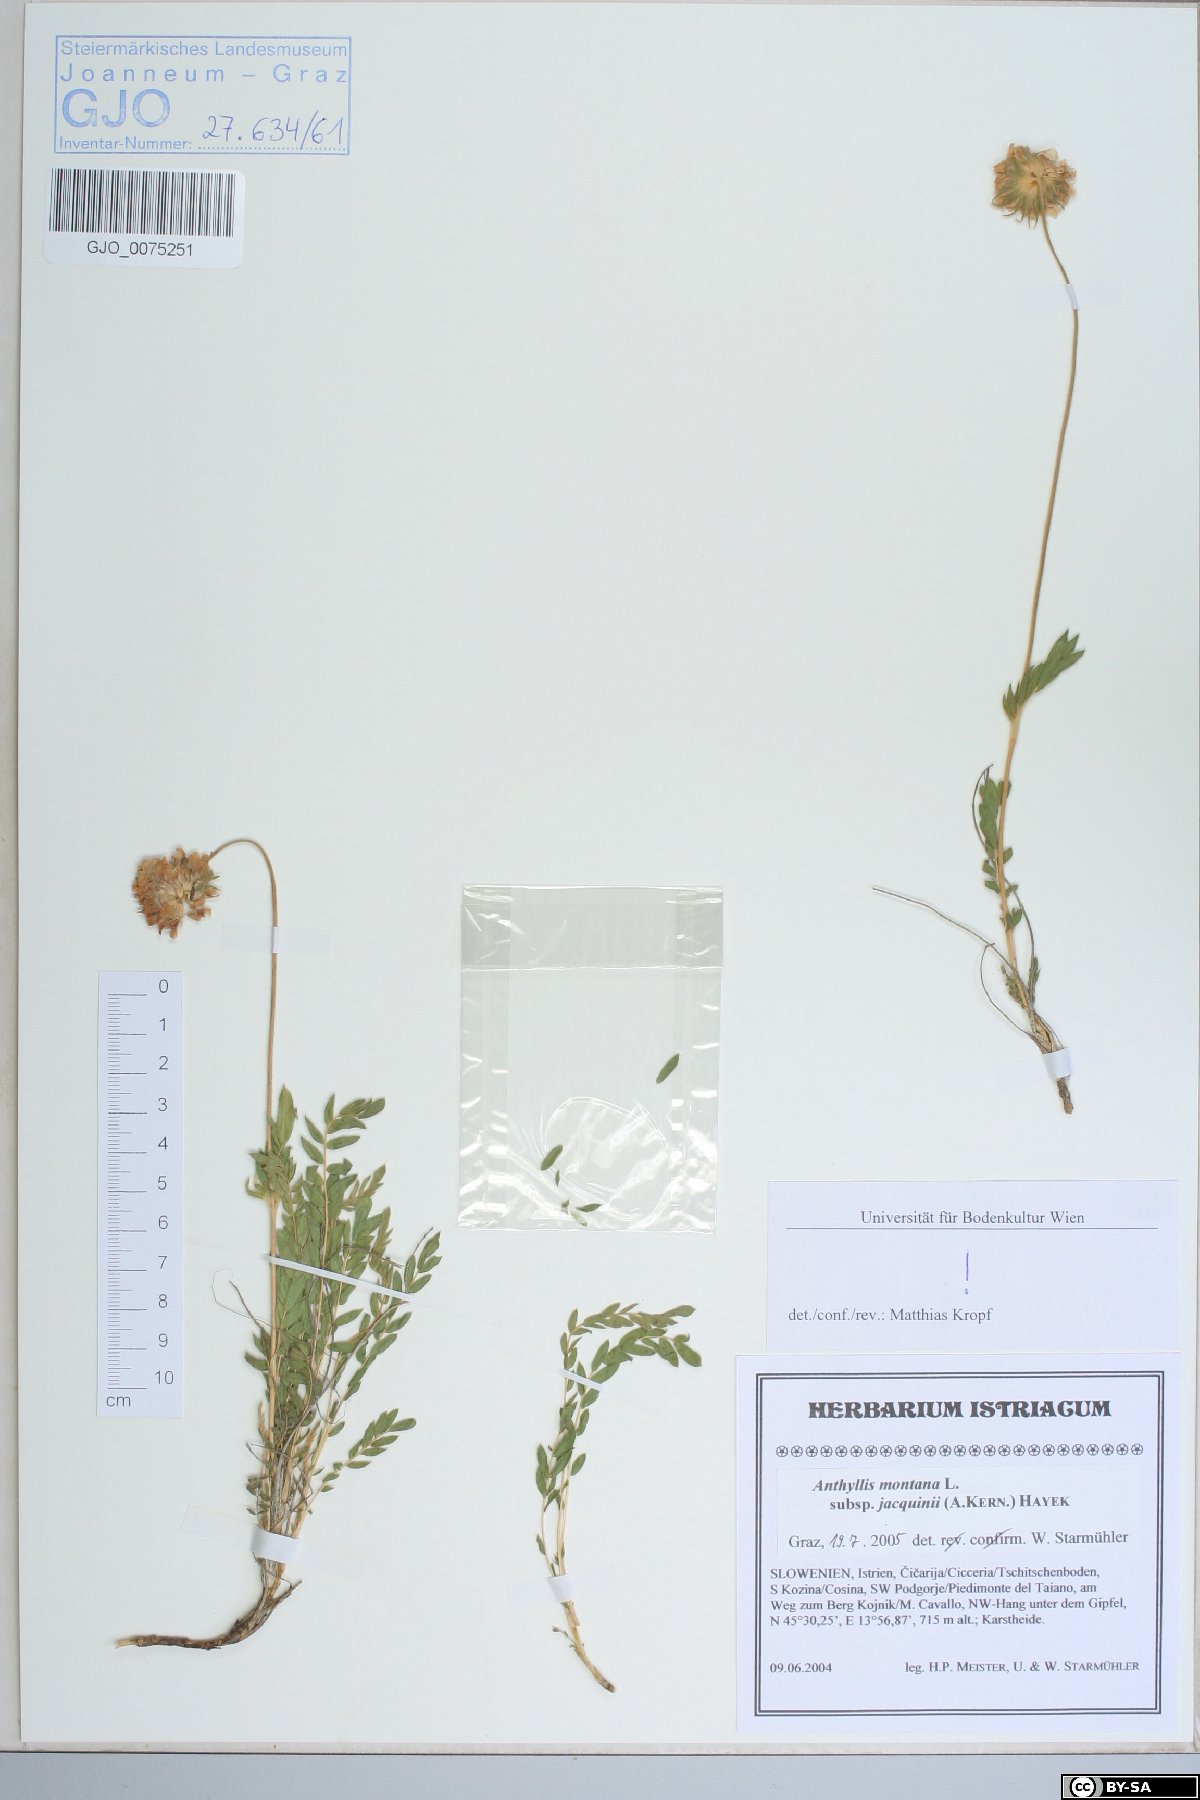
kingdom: Plantae
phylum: Tracheophyta
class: Magnoliopsida
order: Fabales
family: Fabaceae
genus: Anthyllis
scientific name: Anthyllis montana
